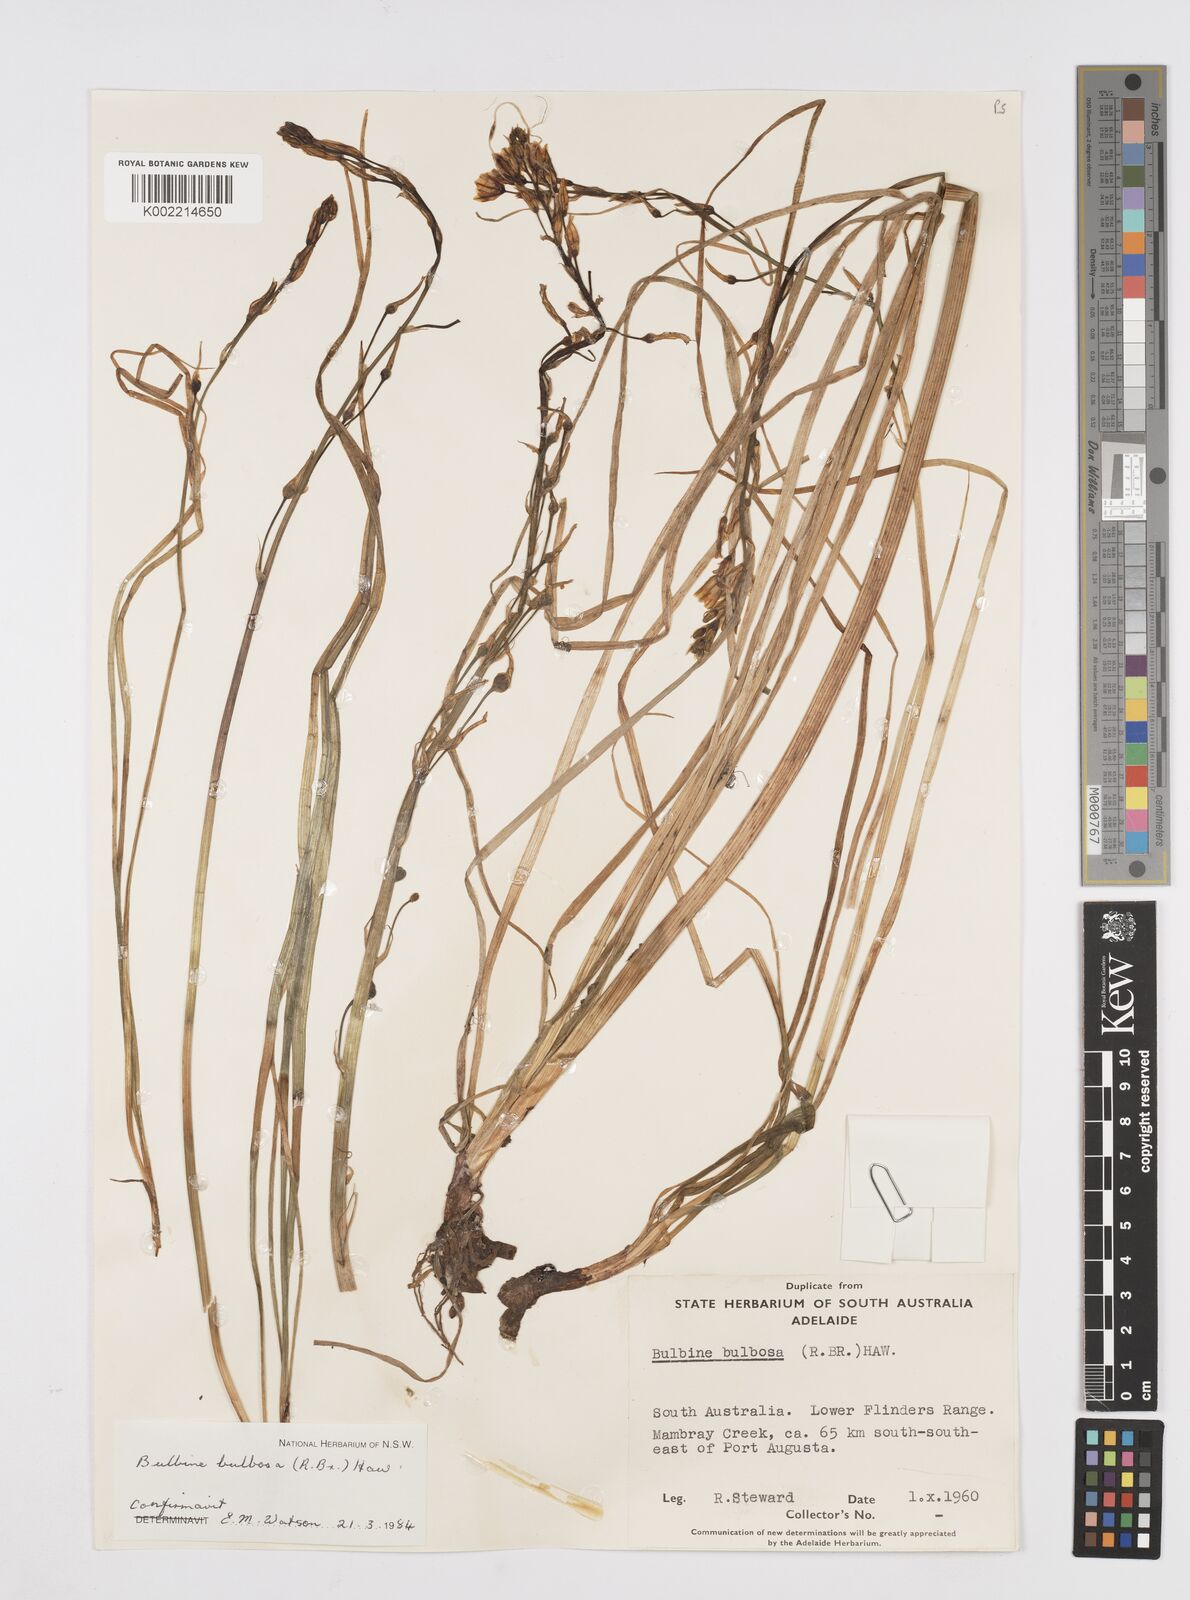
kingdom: Plantae
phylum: Tracheophyta
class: Liliopsida
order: Asparagales
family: Asphodelaceae
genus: Bulbine
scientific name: Bulbine bulbosa
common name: Golden-lily
